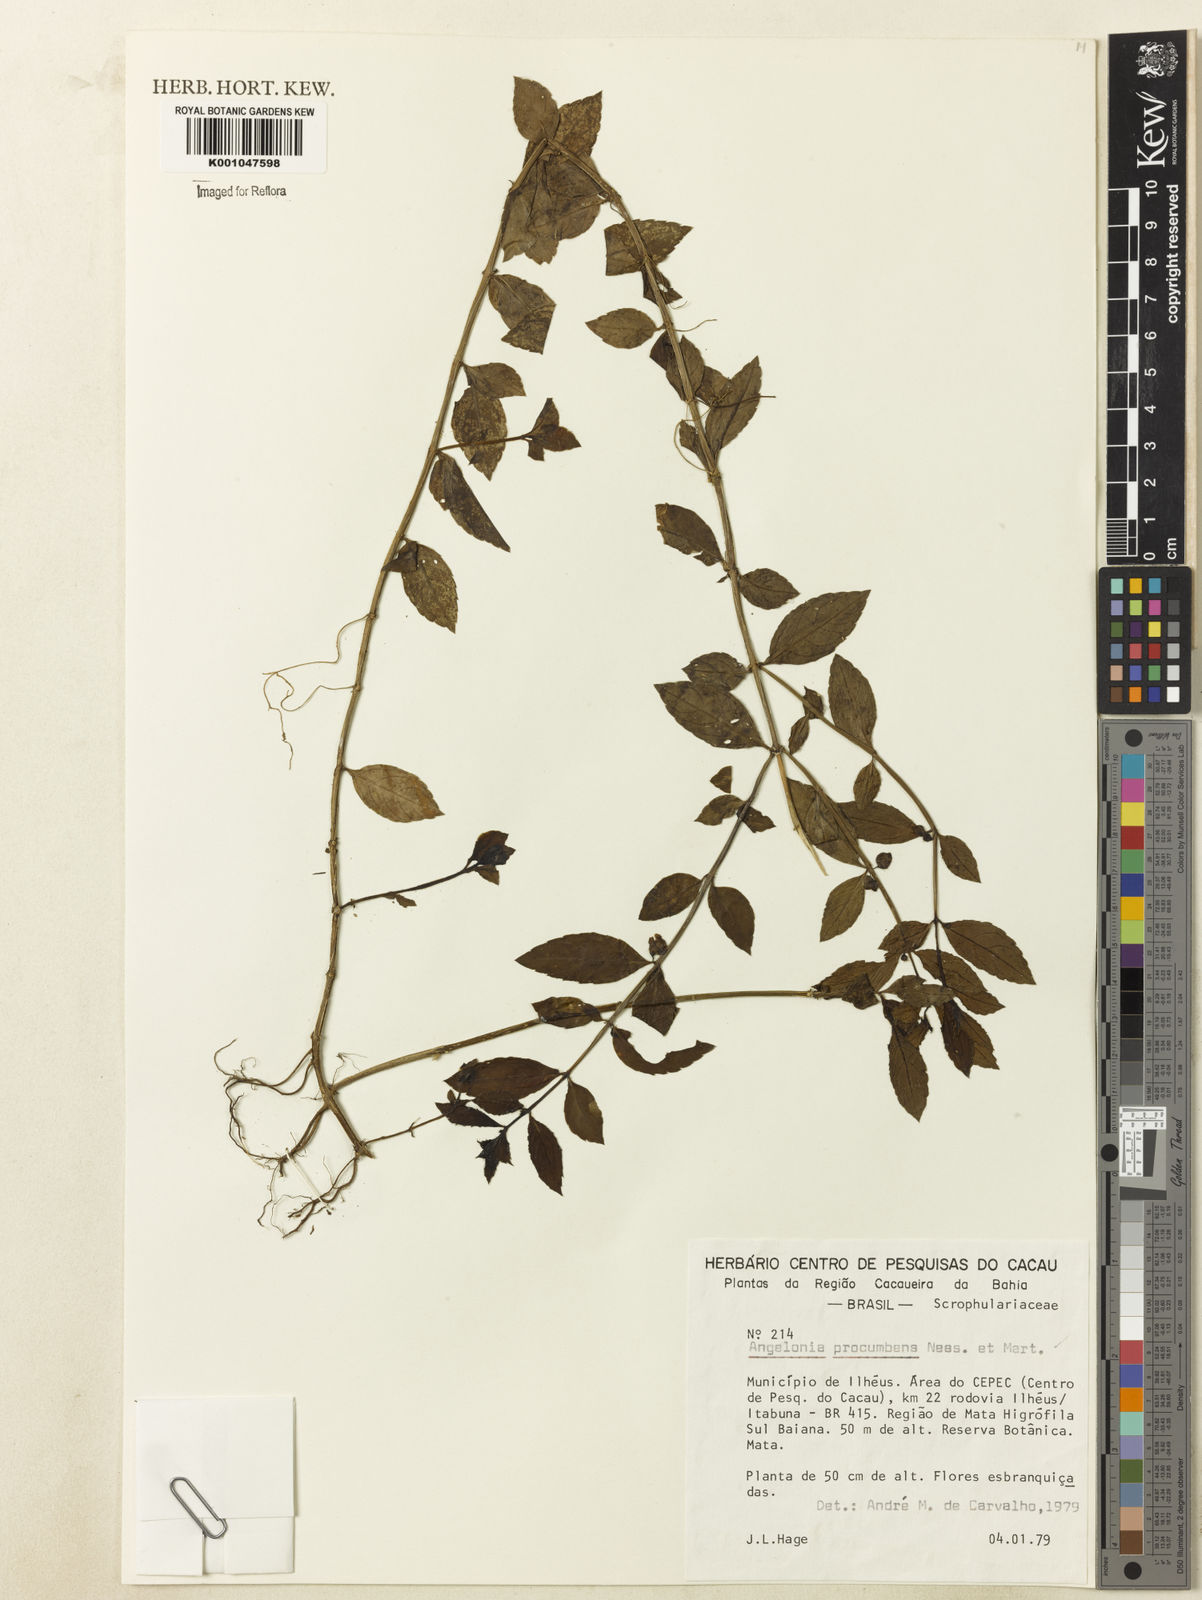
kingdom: Plantae
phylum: Tracheophyta
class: Magnoliopsida
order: Lamiales
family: Plantaginaceae
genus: Angelonia
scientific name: Angelonia procumbens
